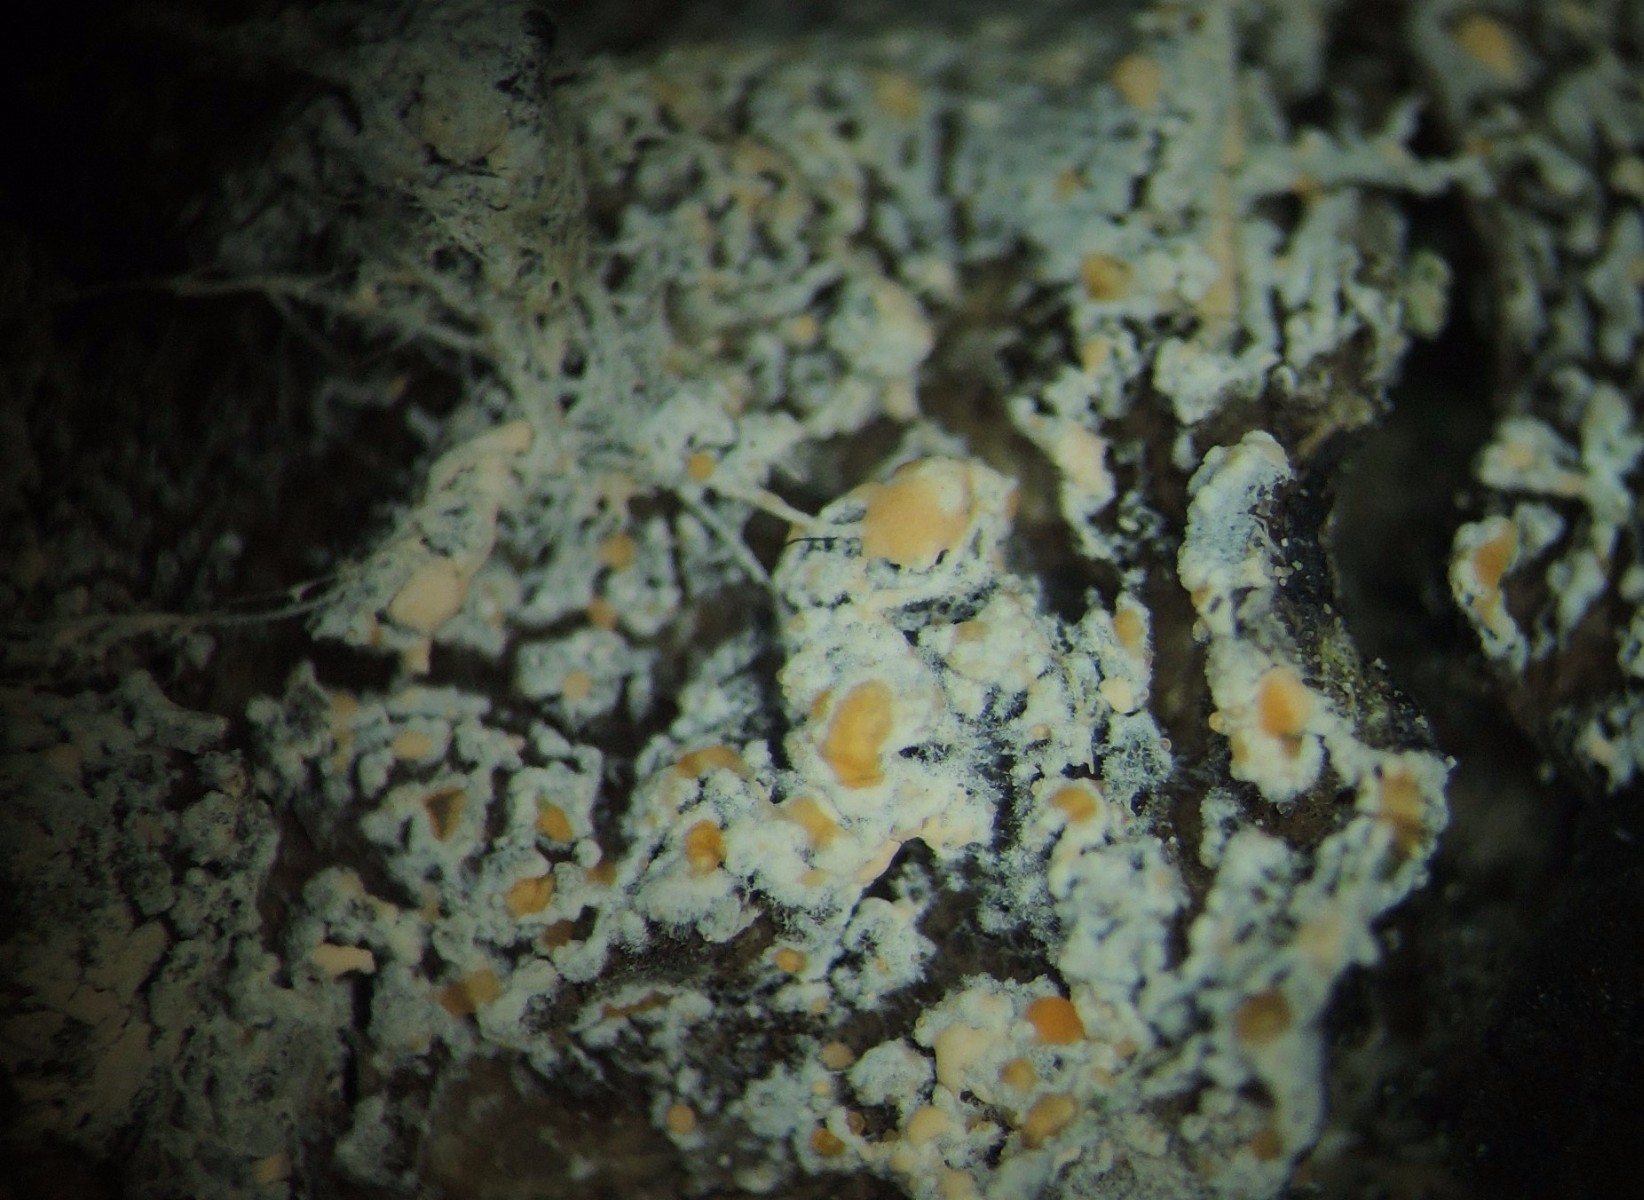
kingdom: Fungi
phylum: Ascomycota
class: Sordariomycetes
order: Hypocreales
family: Hypocreaceae
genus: Gliocladium
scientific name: Gliocladium
